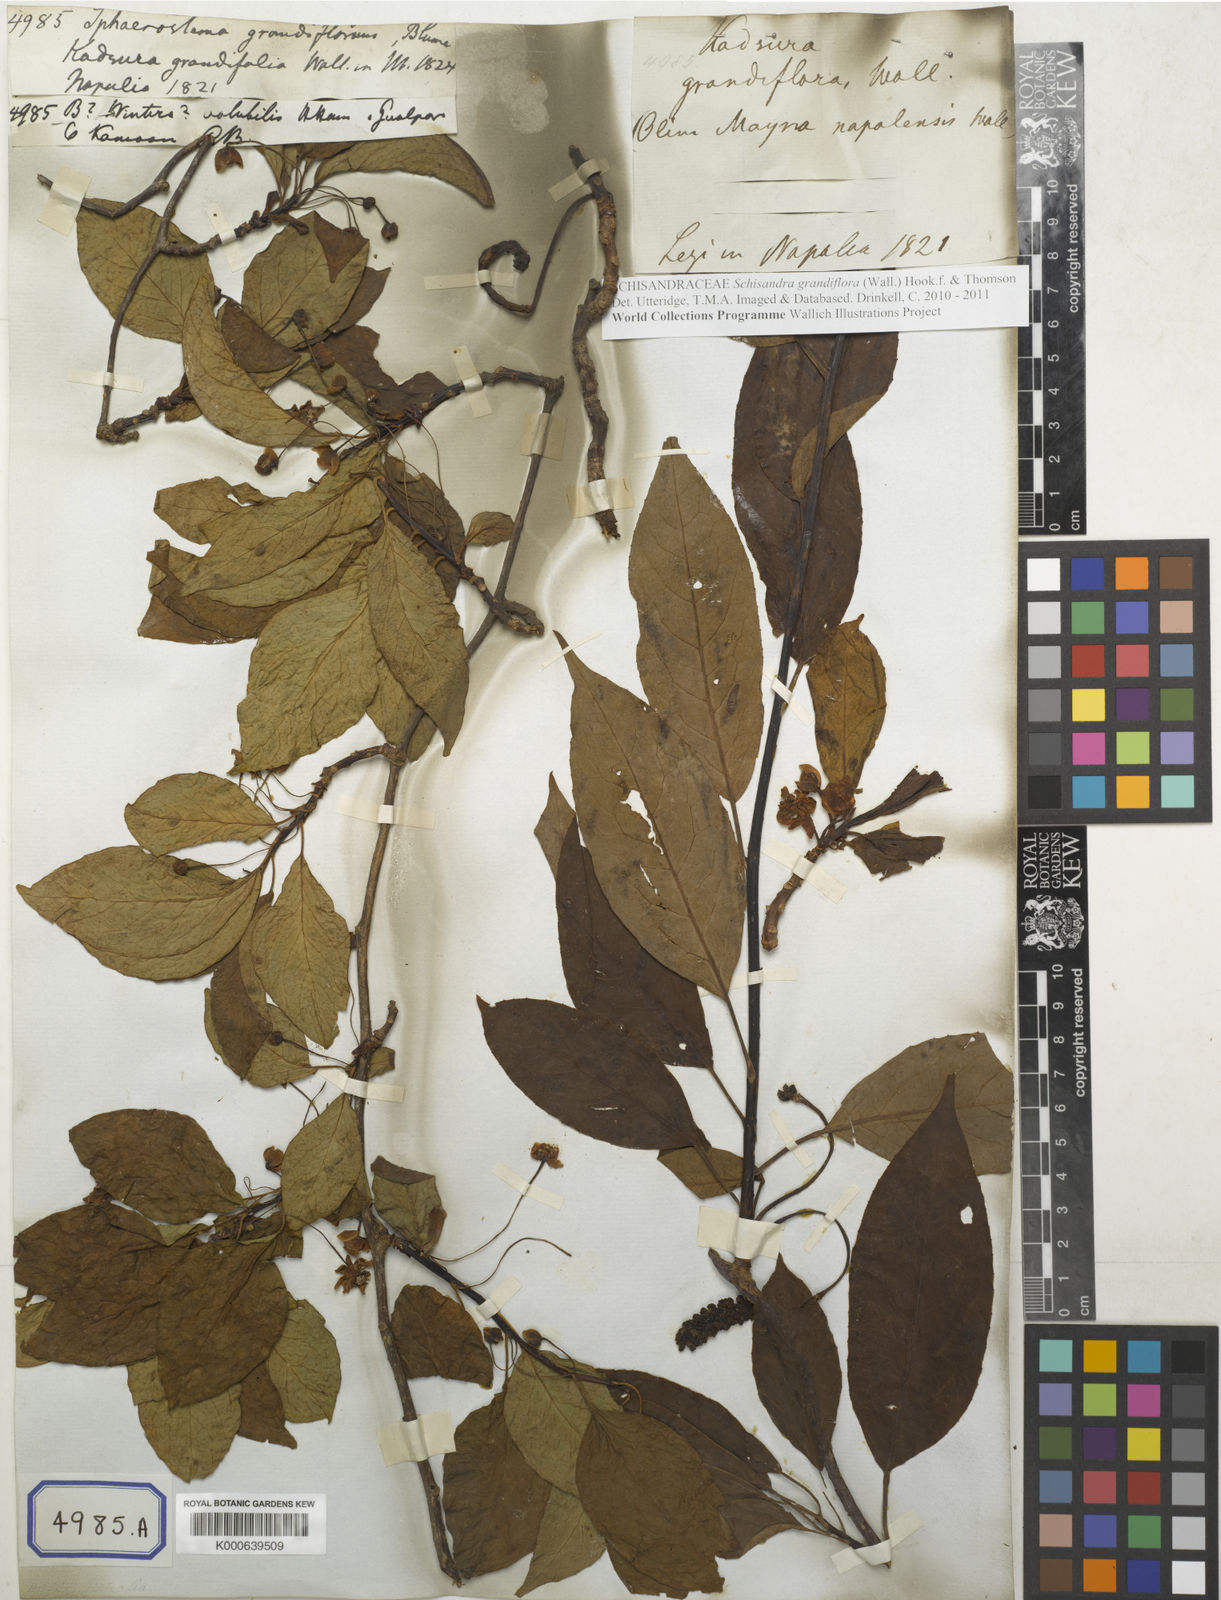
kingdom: Plantae
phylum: Tracheophyta
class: Magnoliopsida
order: Austrobaileyales
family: Schisandraceae
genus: Schisandra
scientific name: Schisandra grandiflora
